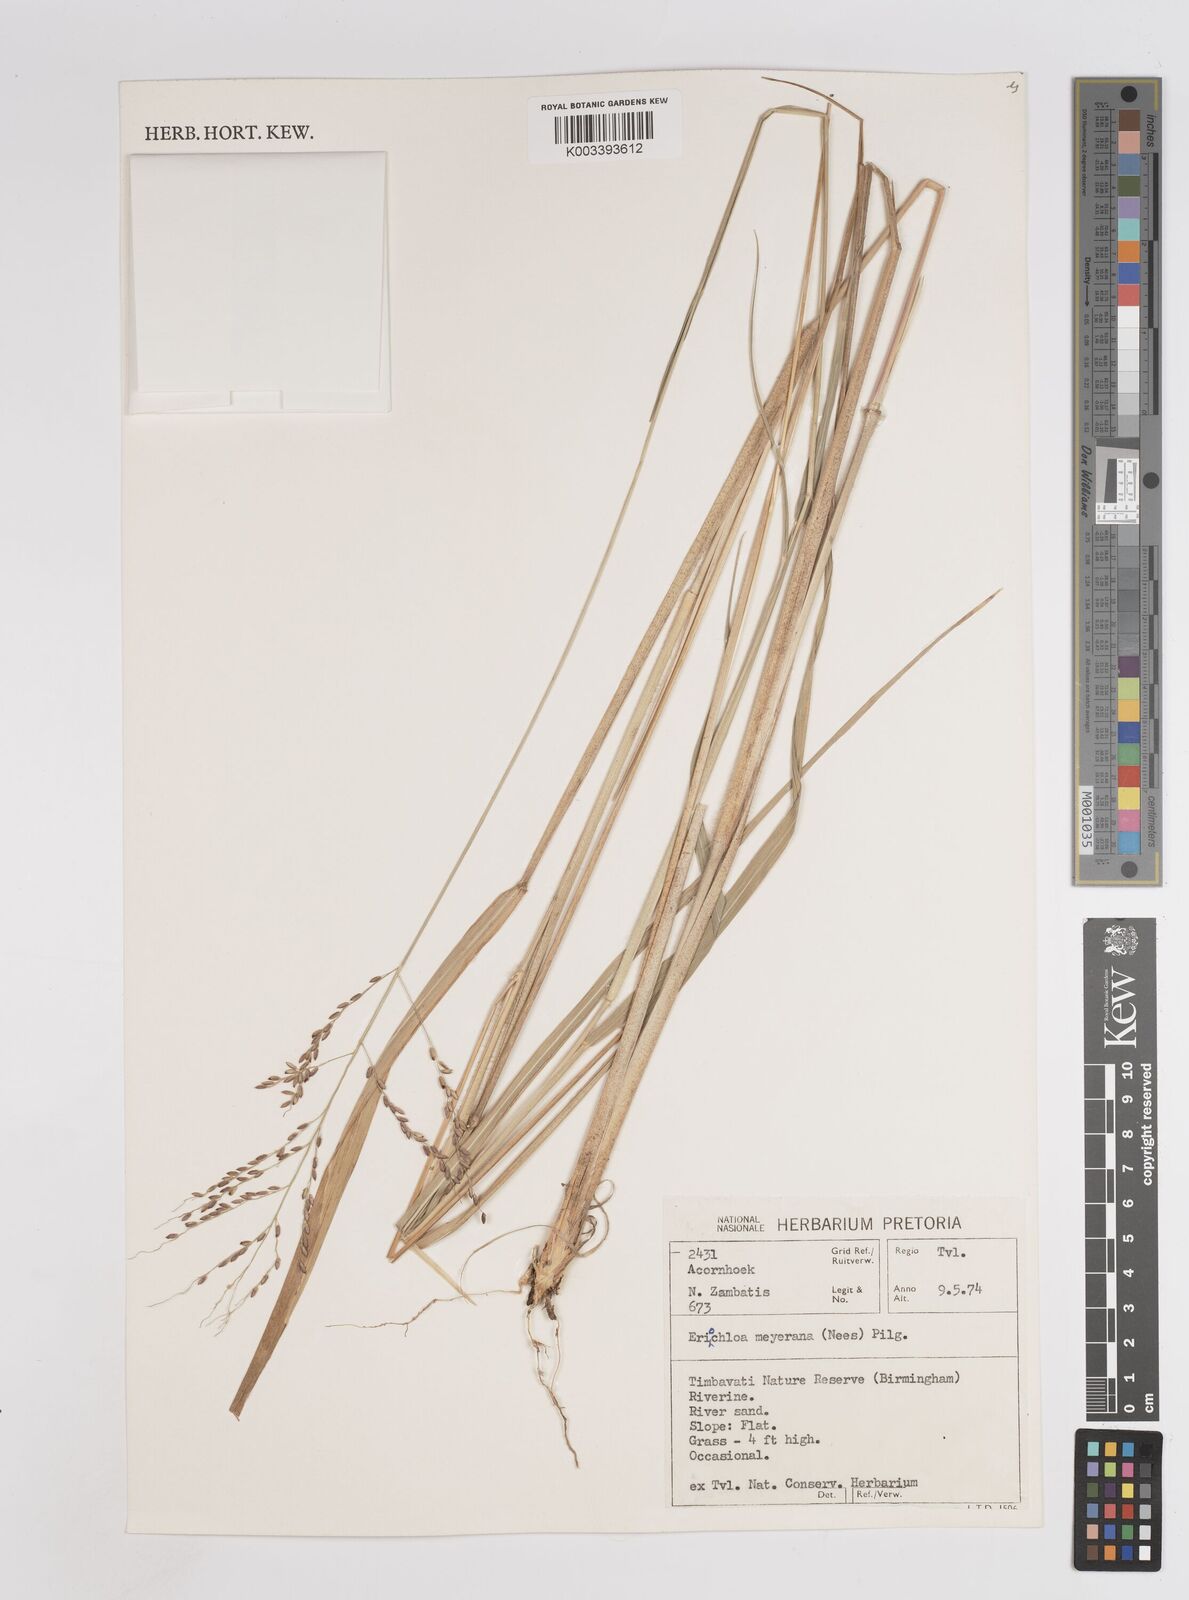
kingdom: Plantae
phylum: Tracheophyta
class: Liliopsida
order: Poales
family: Poaceae
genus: Megathyrsus
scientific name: Megathyrsus infestus
